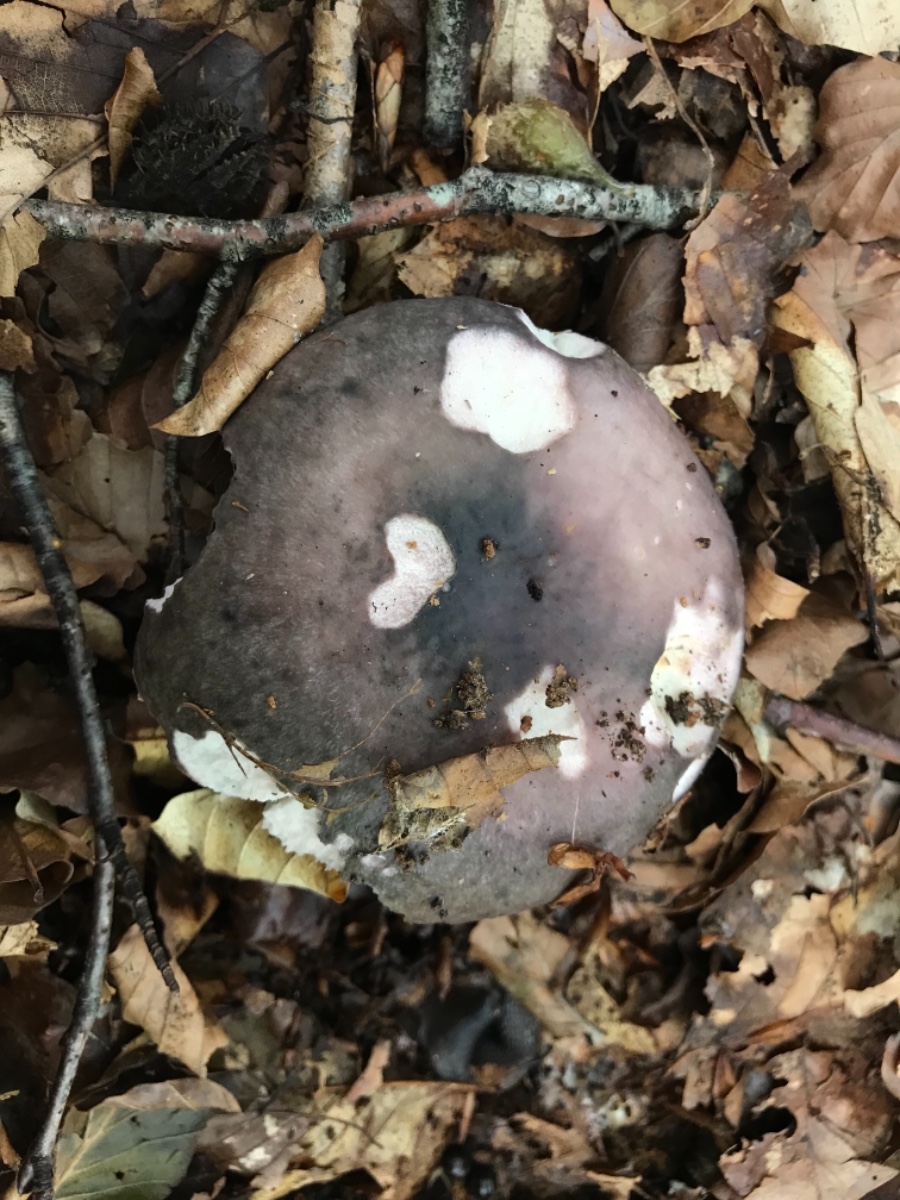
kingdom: Fungi
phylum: Basidiomycota
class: Agaricomycetes
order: Russulales
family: Russulaceae
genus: Russula
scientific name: Russula cyanoxantha
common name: broget skørhat
